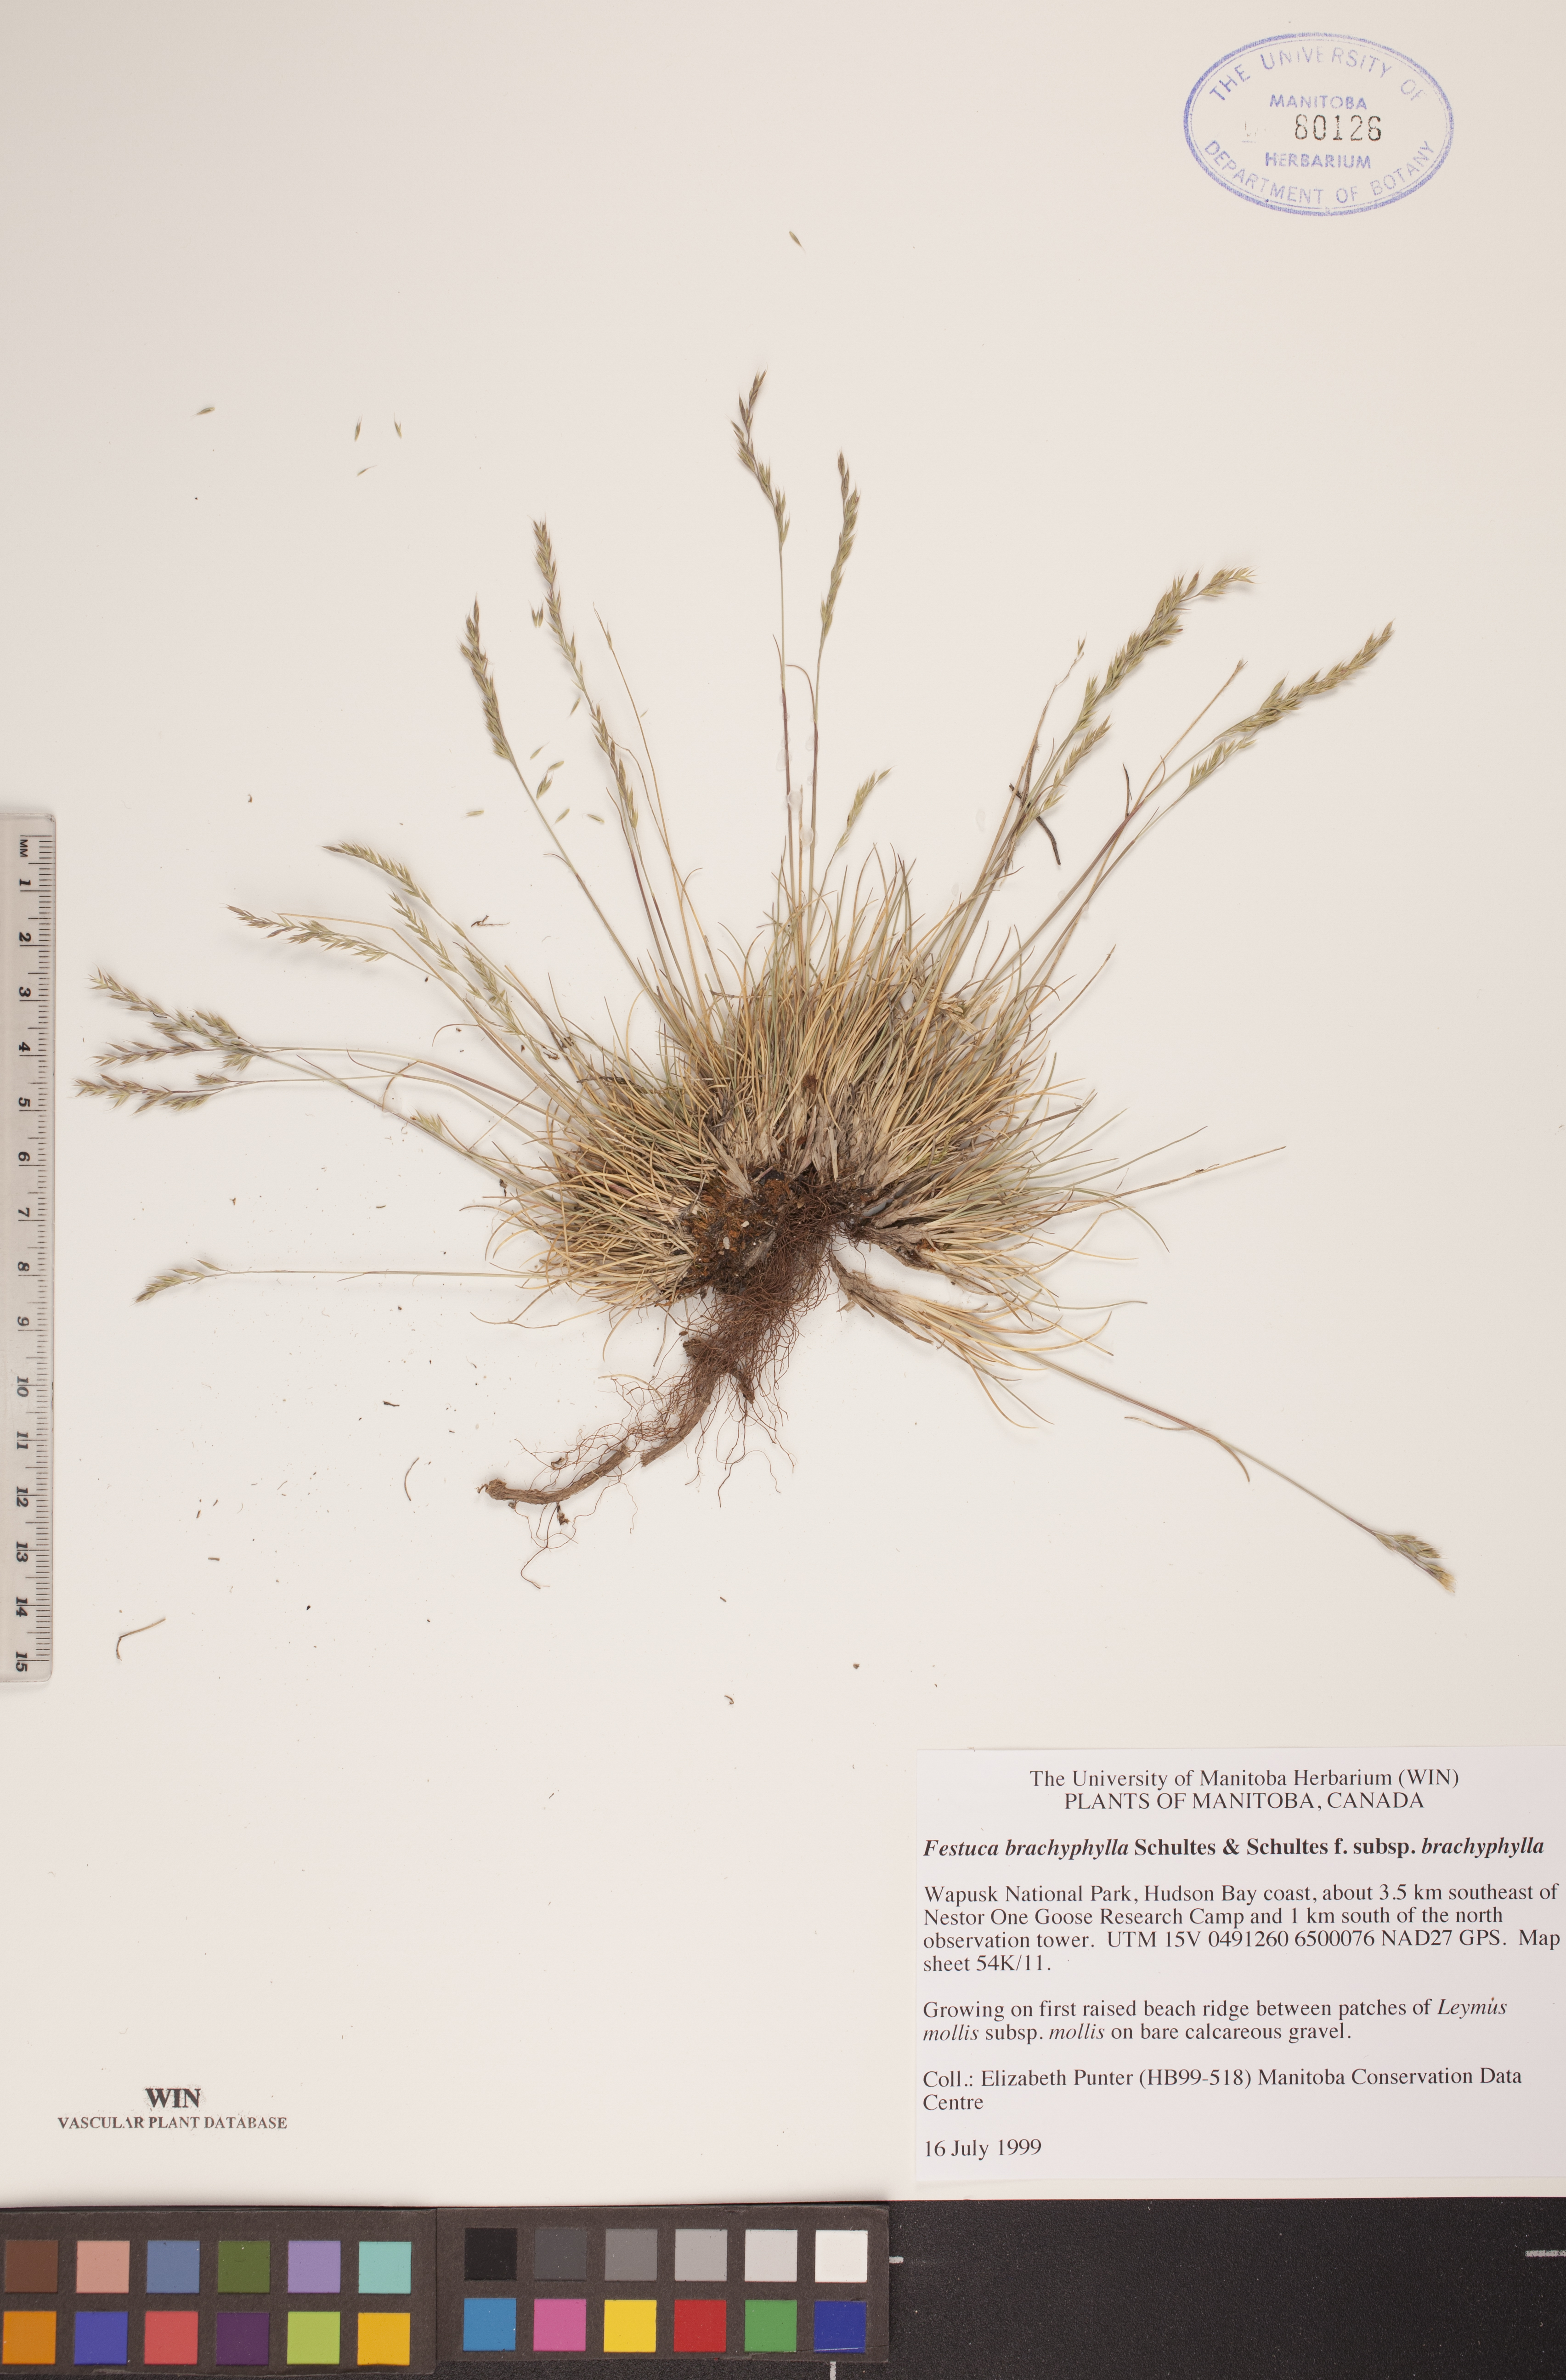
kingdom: Plantae
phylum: Tracheophyta
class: Liliopsida
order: Poales
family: Poaceae
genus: Festuca
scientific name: Festuca brachyphylla
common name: Alpine fescue
